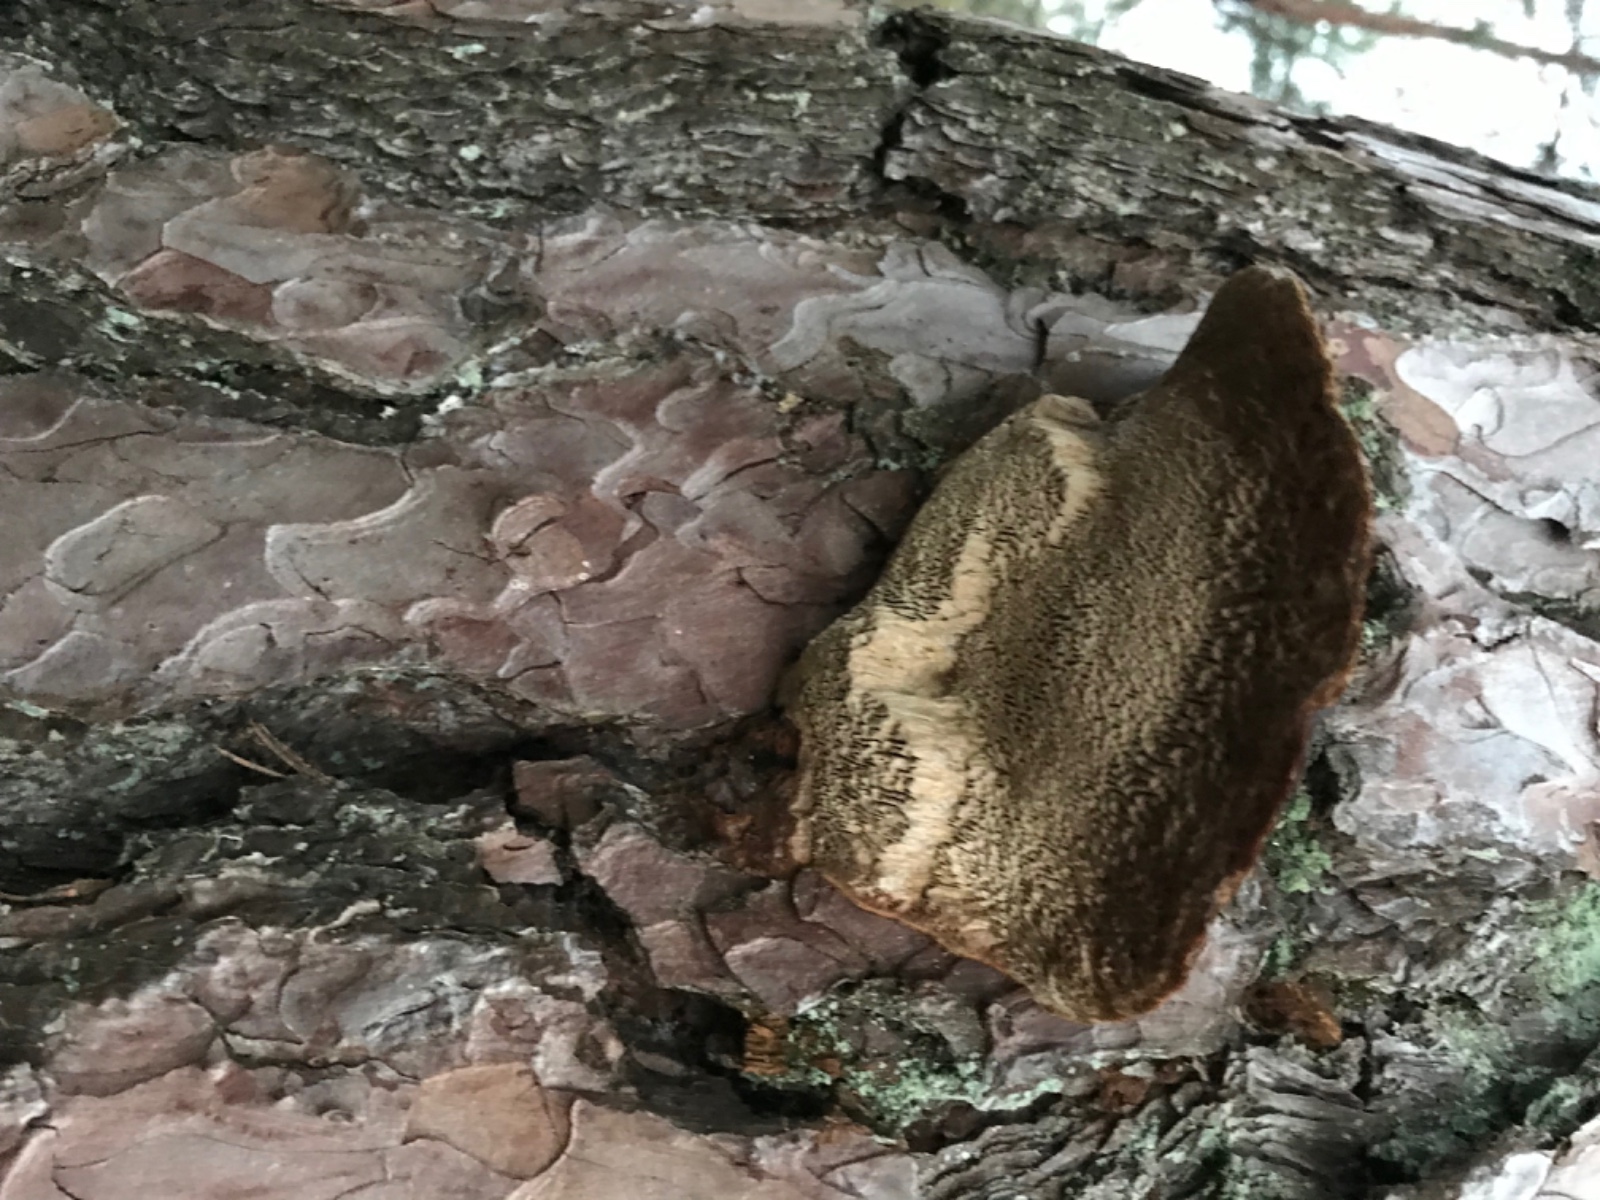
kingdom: Fungi
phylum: Basidiomycota
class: Agaricomycetes
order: Hymenochaetales
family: Hymenochaetaceae
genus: Porodaedalea
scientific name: Porodaedalea pini
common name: fyrre-ildporesvamp
